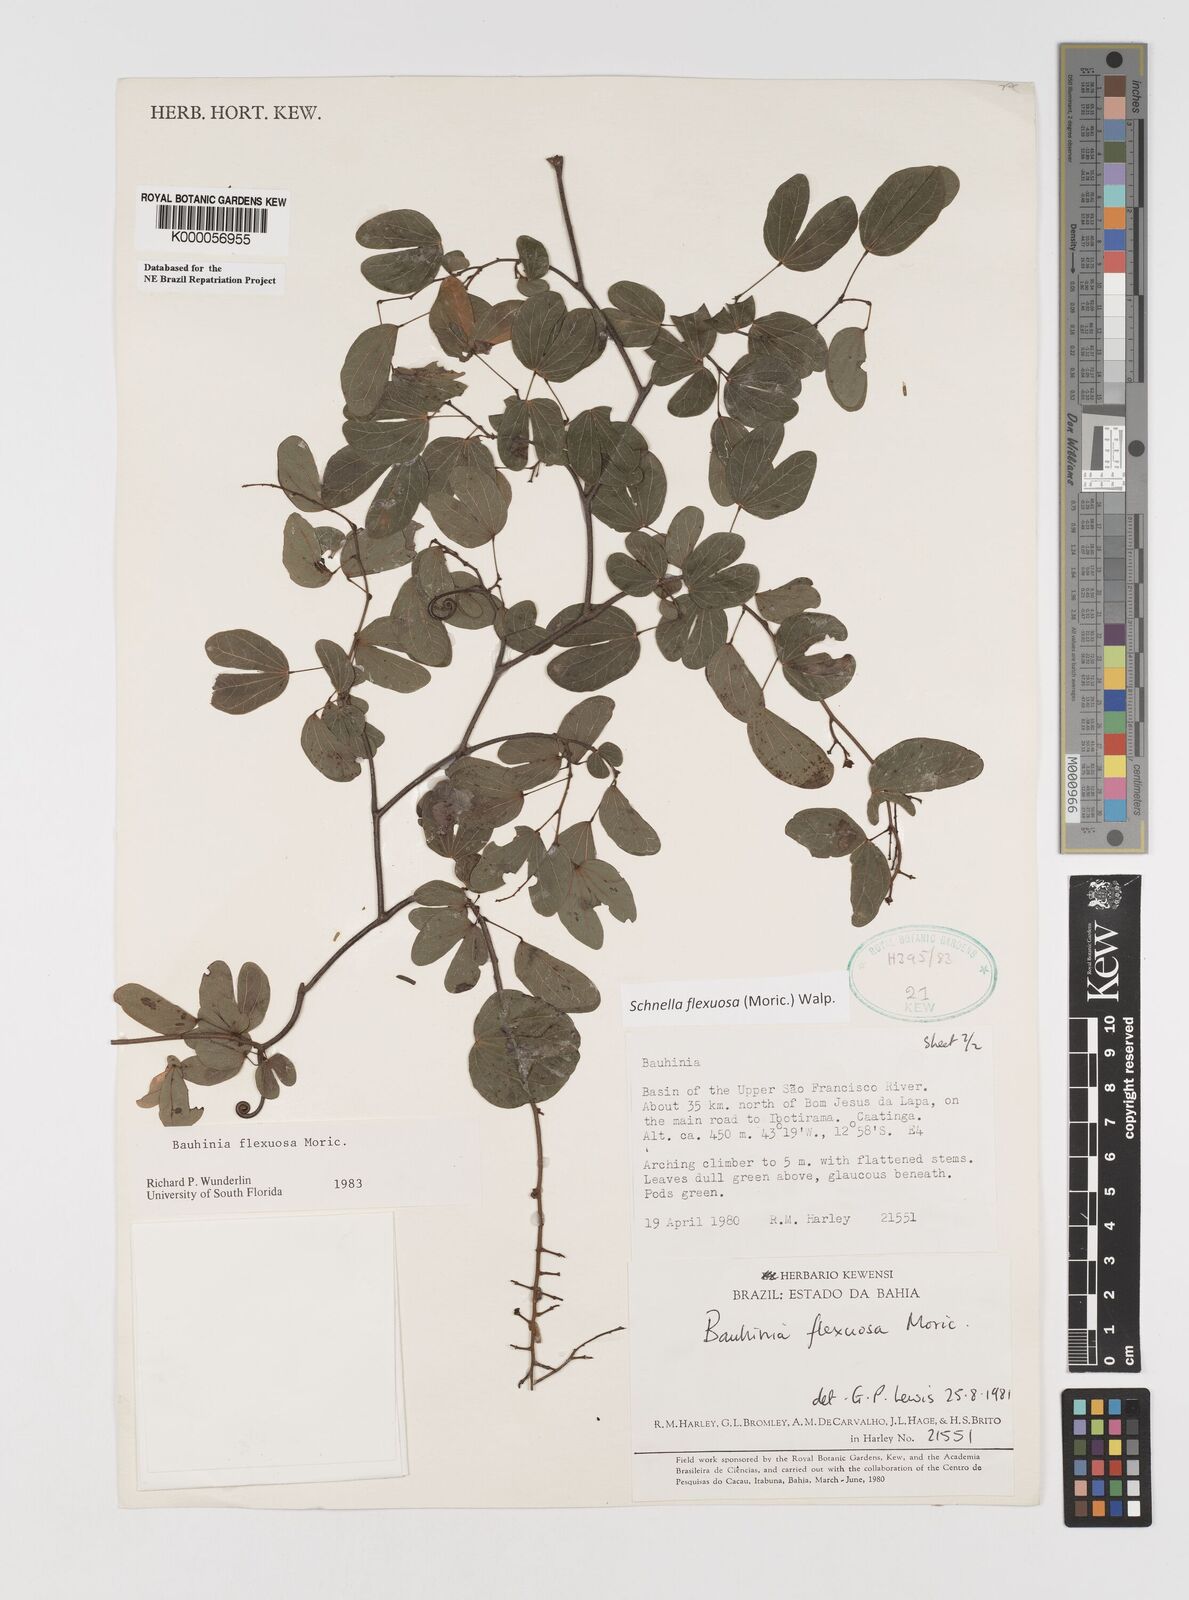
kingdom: Plantae
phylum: Tracheophyta
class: Magnoliopsida
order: Fabales
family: Fabaceae
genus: Schnella
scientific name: Schnella flexuosa
